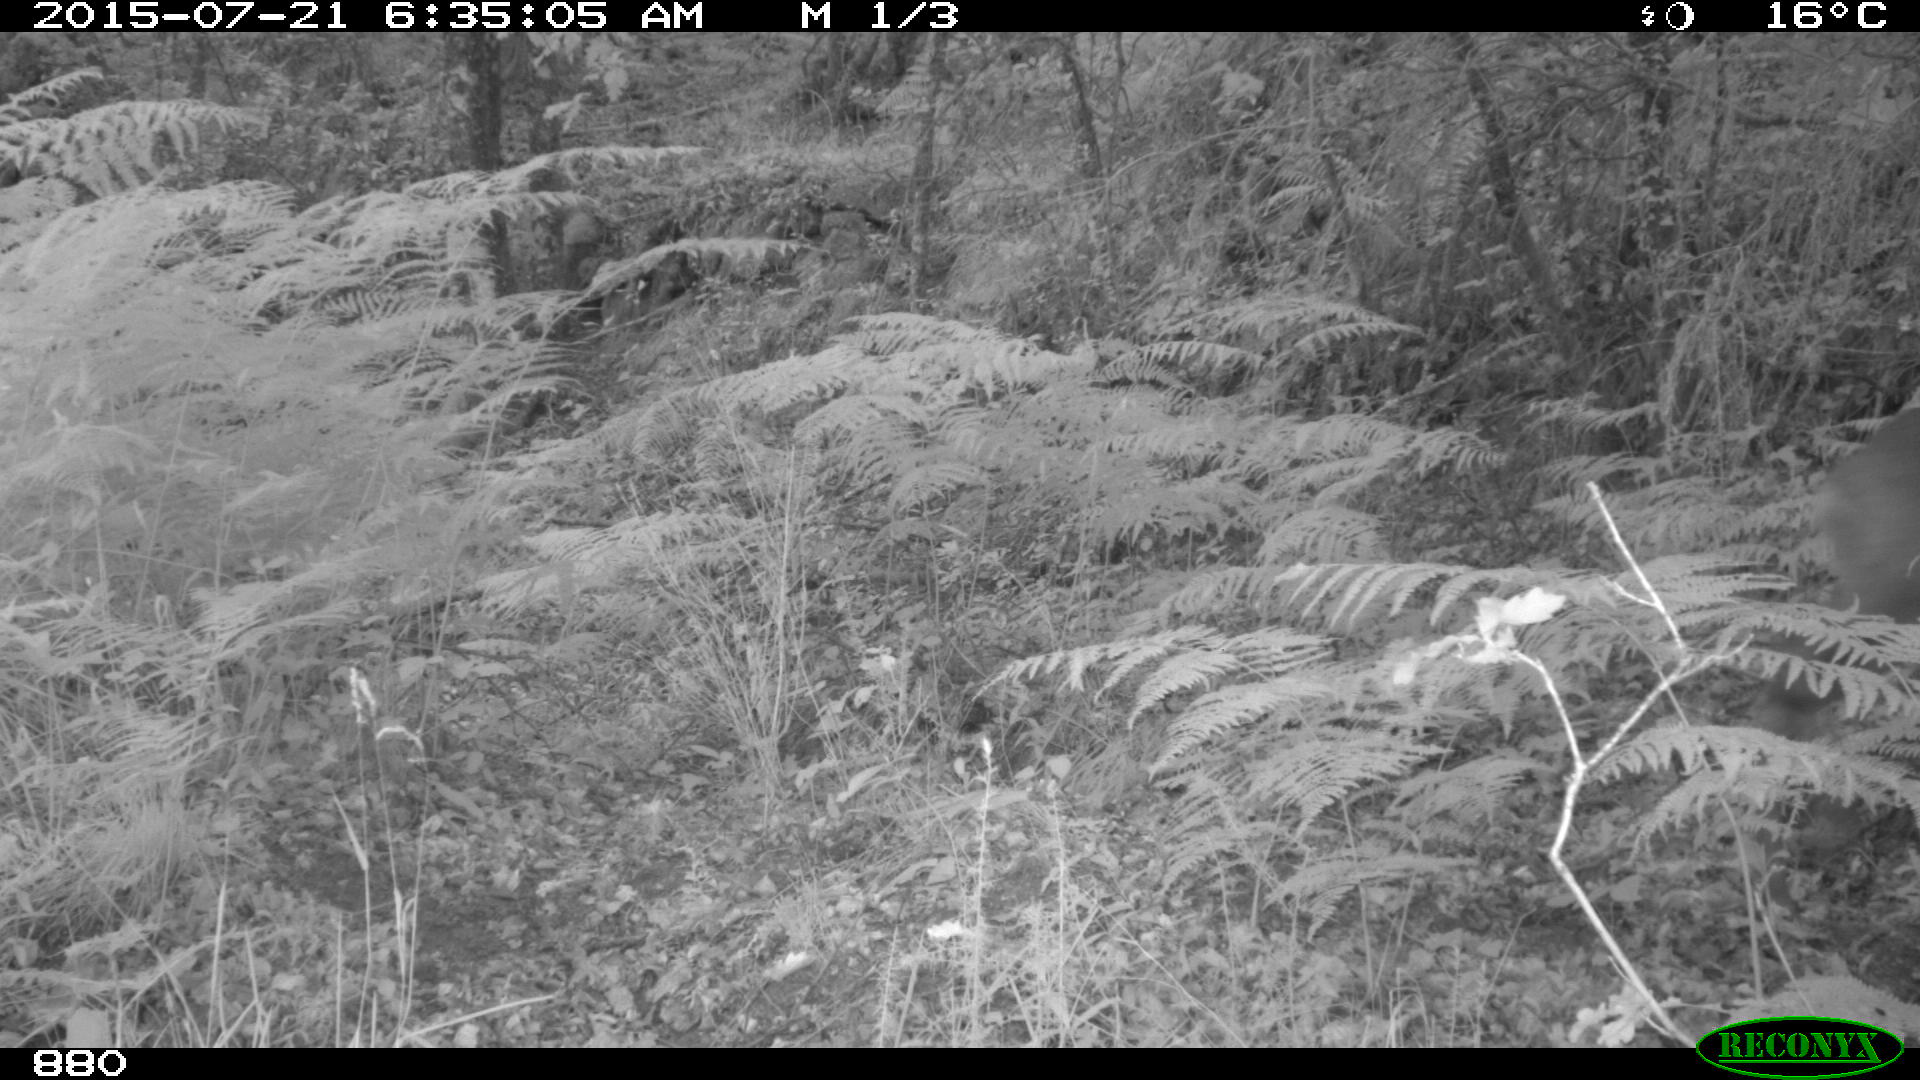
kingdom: Animalia
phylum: Chordata
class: Mammalia
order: Artiodactyla
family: Cervidae
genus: Capreolus
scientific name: Capreolus capreolus
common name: Western roe deer
